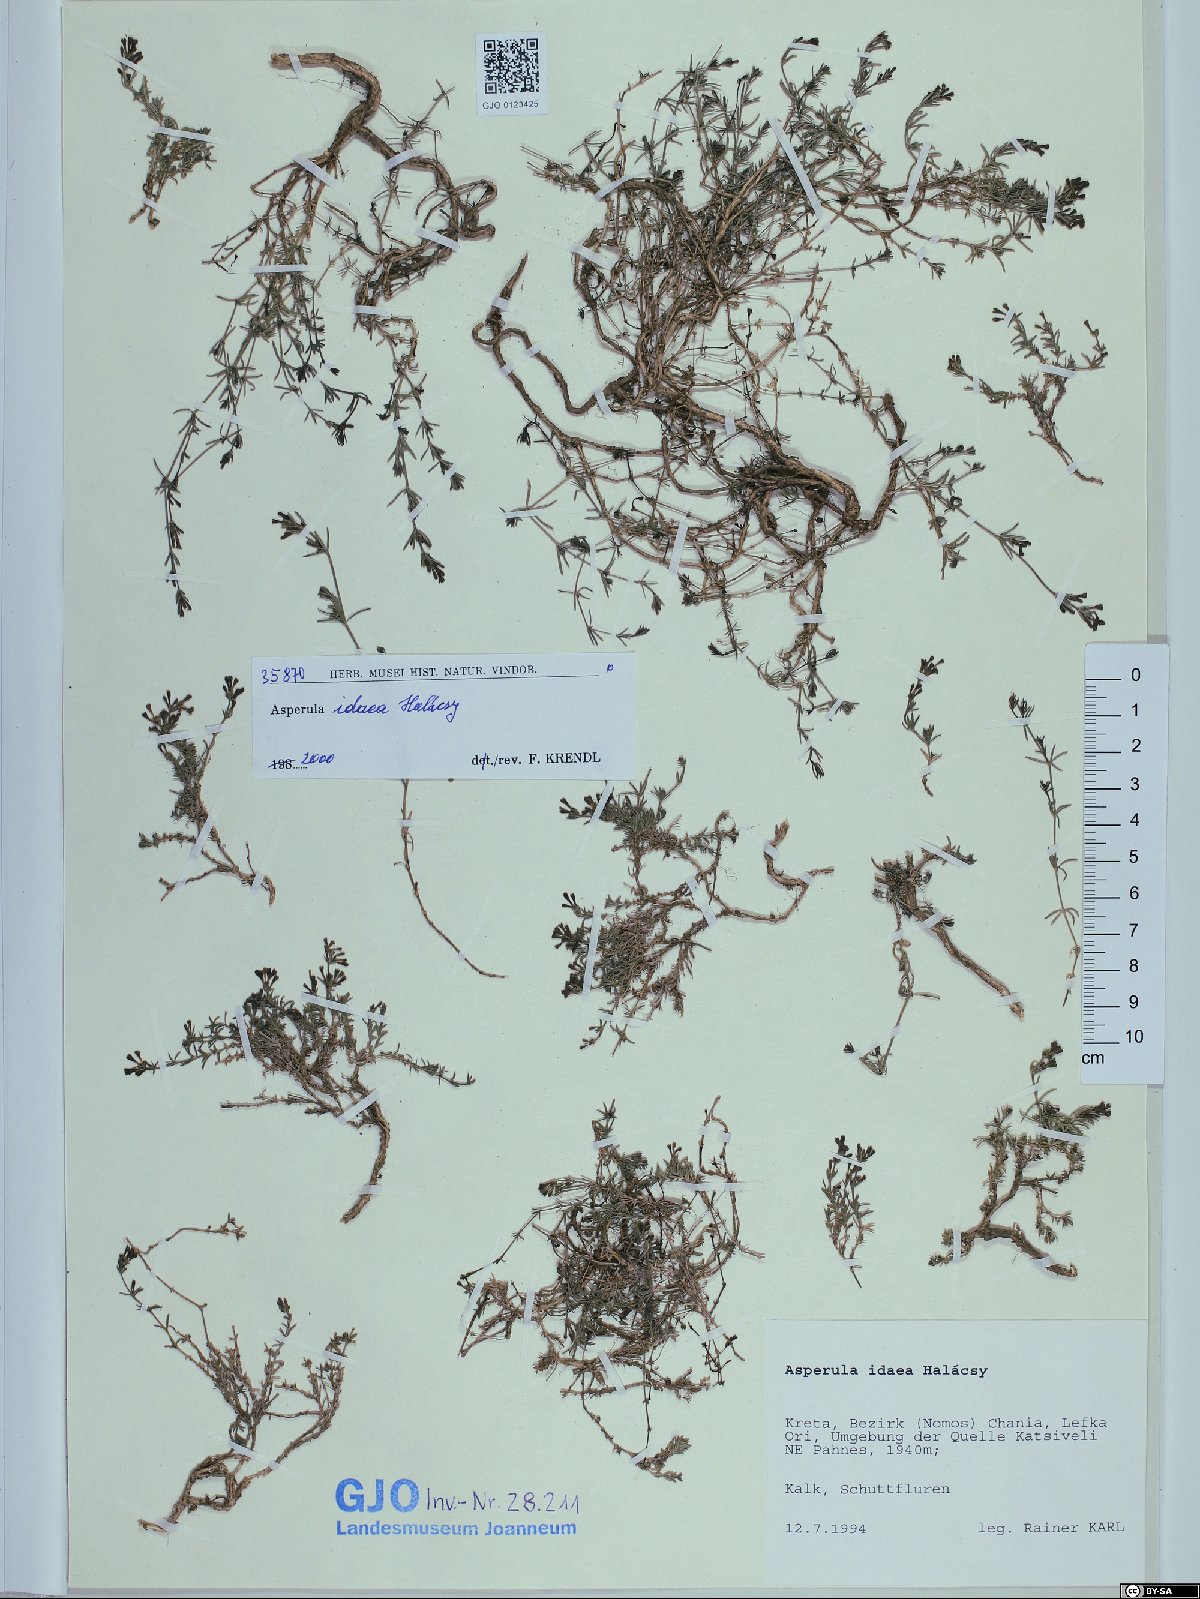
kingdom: Plantae
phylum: Tracheophyta
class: Magnoliopsida
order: Gentianales
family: Rubiaceae
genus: Cynanchica
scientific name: Cynanchica idaea
